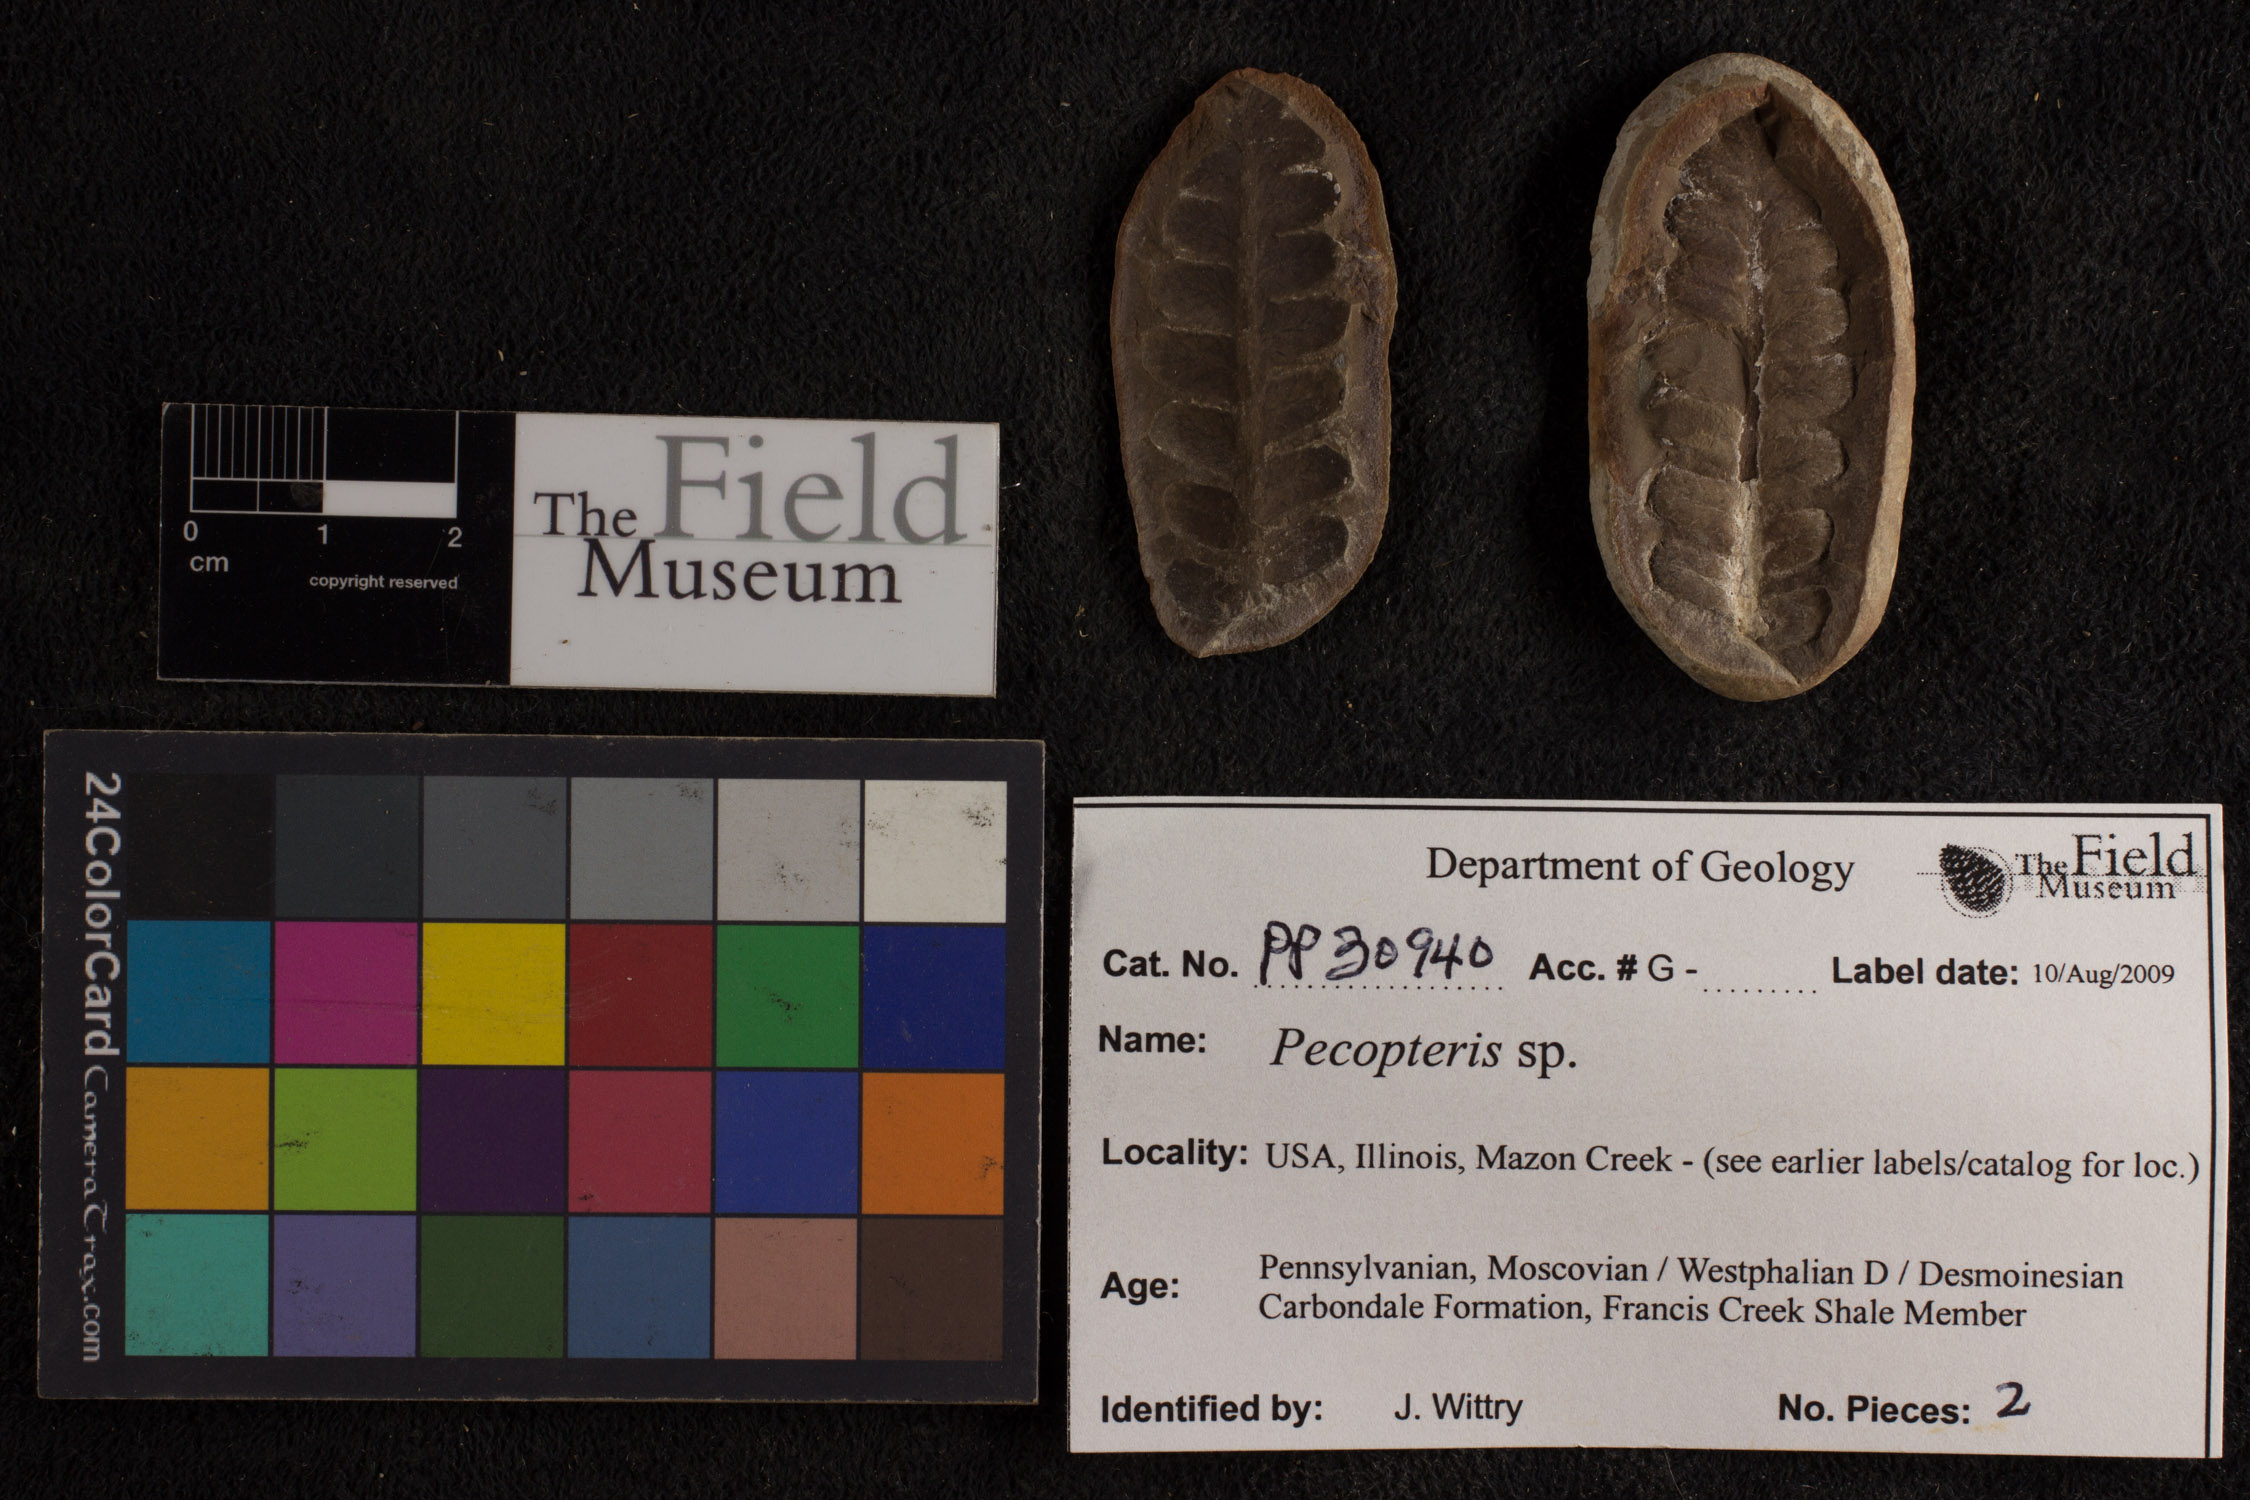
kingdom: Plantae
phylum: Tracheophyta
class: Polypodiopsida
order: Marattiales
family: Asterothecaceae
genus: Pecopteris
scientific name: Pecopteris
